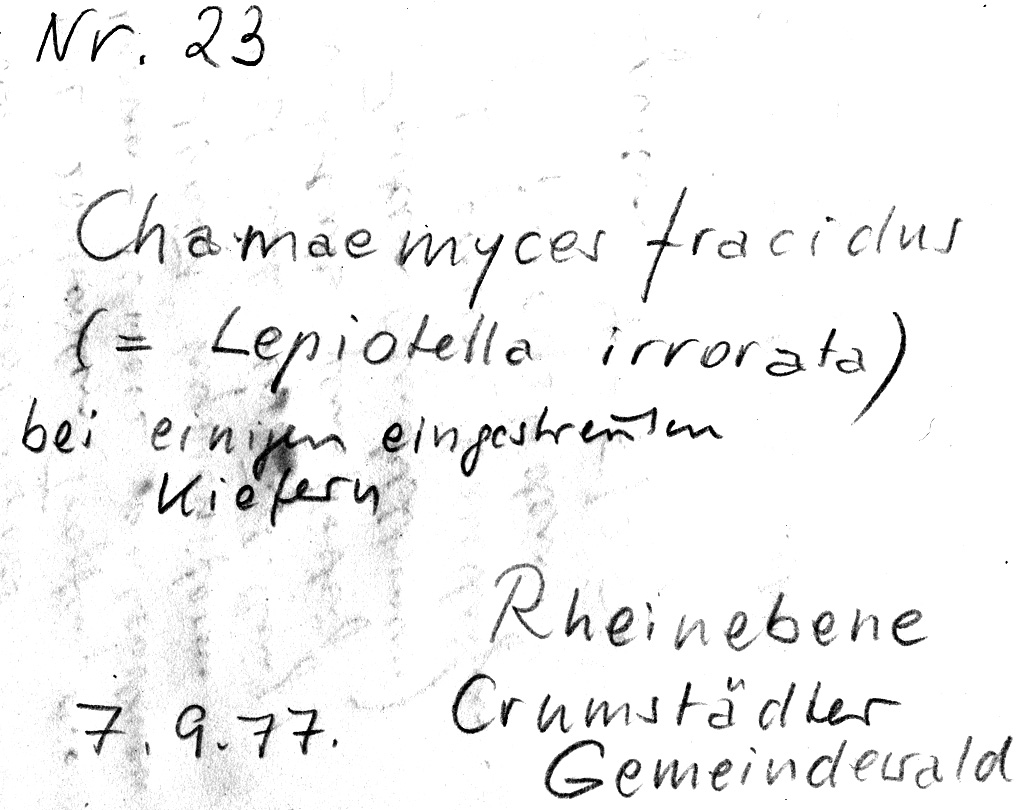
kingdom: Fungi
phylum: Basidiomycota
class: Agaricomycetes
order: Agaricales
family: Agaricaceae
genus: Chamaemyces
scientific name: Chamaemyces fracidus
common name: Dewdrop dapperling
